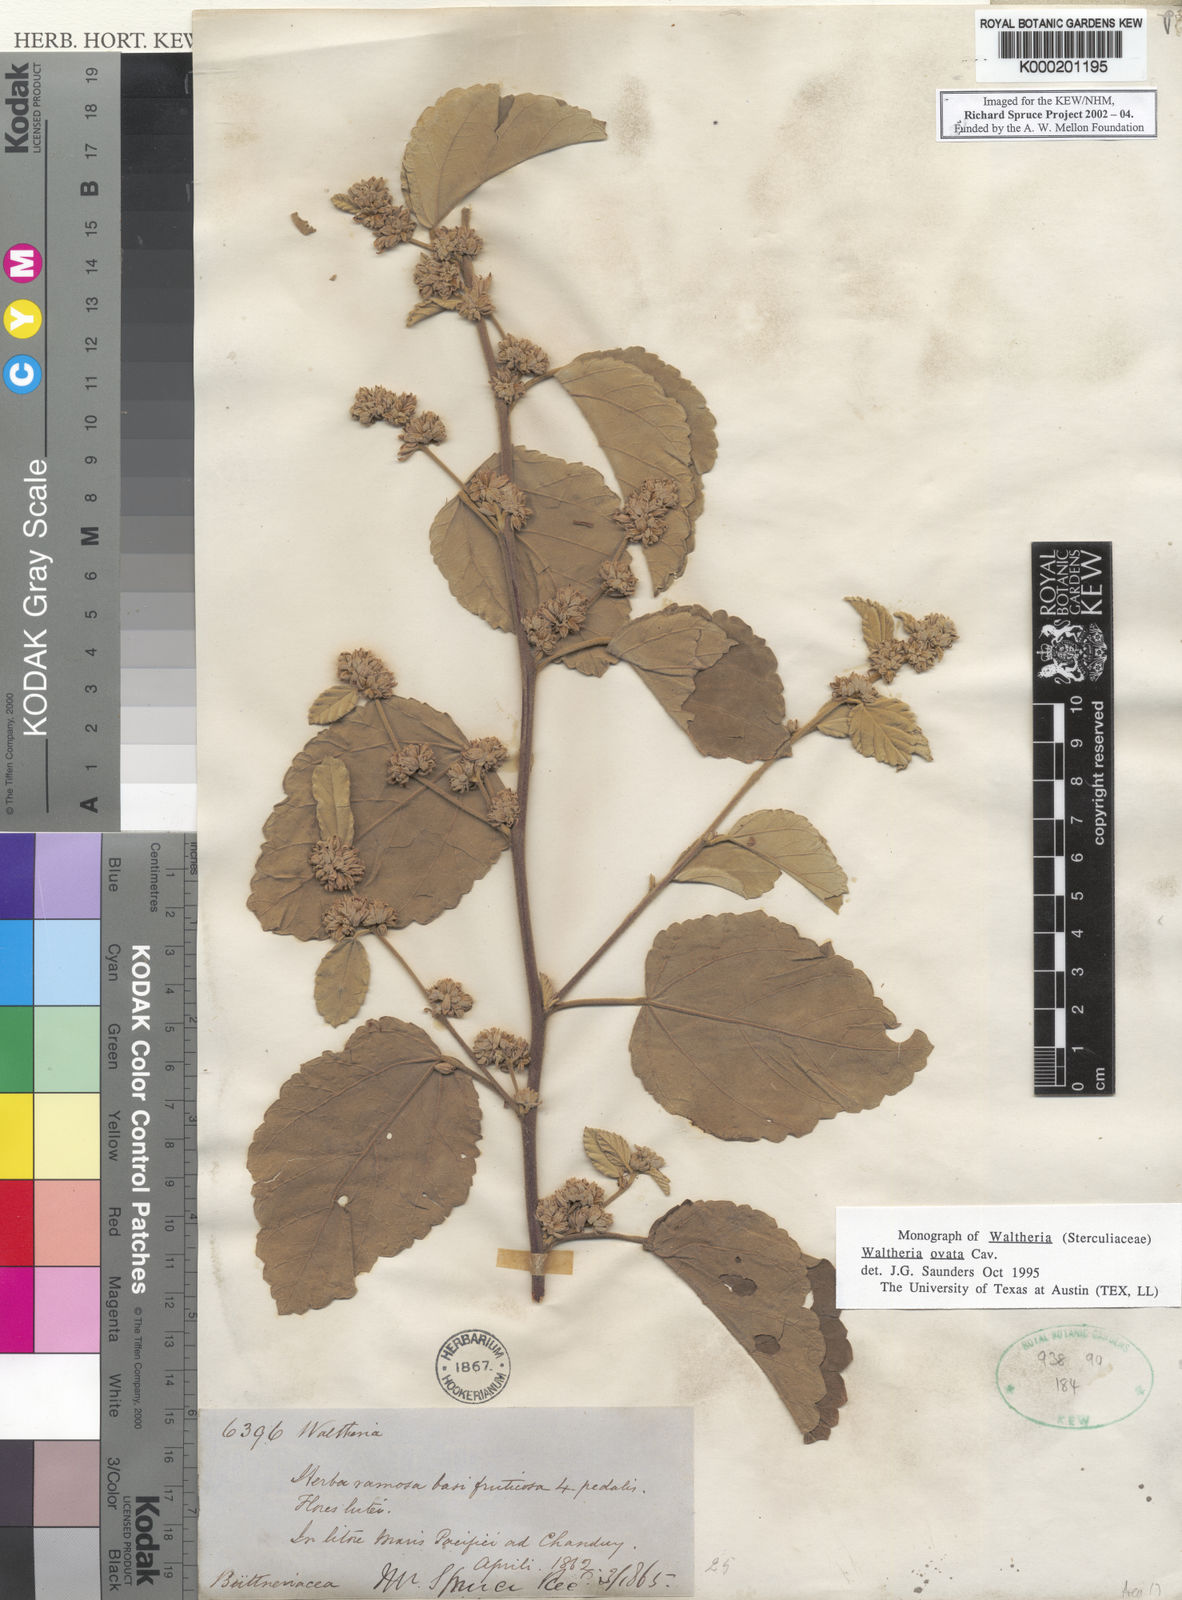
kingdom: Plantae
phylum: Tracheophyta
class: Magnoliopsida
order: Malvales
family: Malvaceae
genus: Waltheria
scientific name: Waltheria ovata
